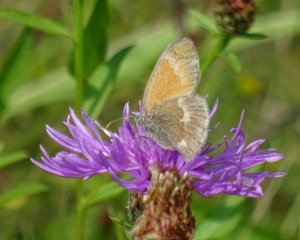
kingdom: Animalia
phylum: Arthropoda
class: Insecta
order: Lepidoptera
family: Nymphalidae
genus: Coenonympha
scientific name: Coenonympha tullia
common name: Large Heath
